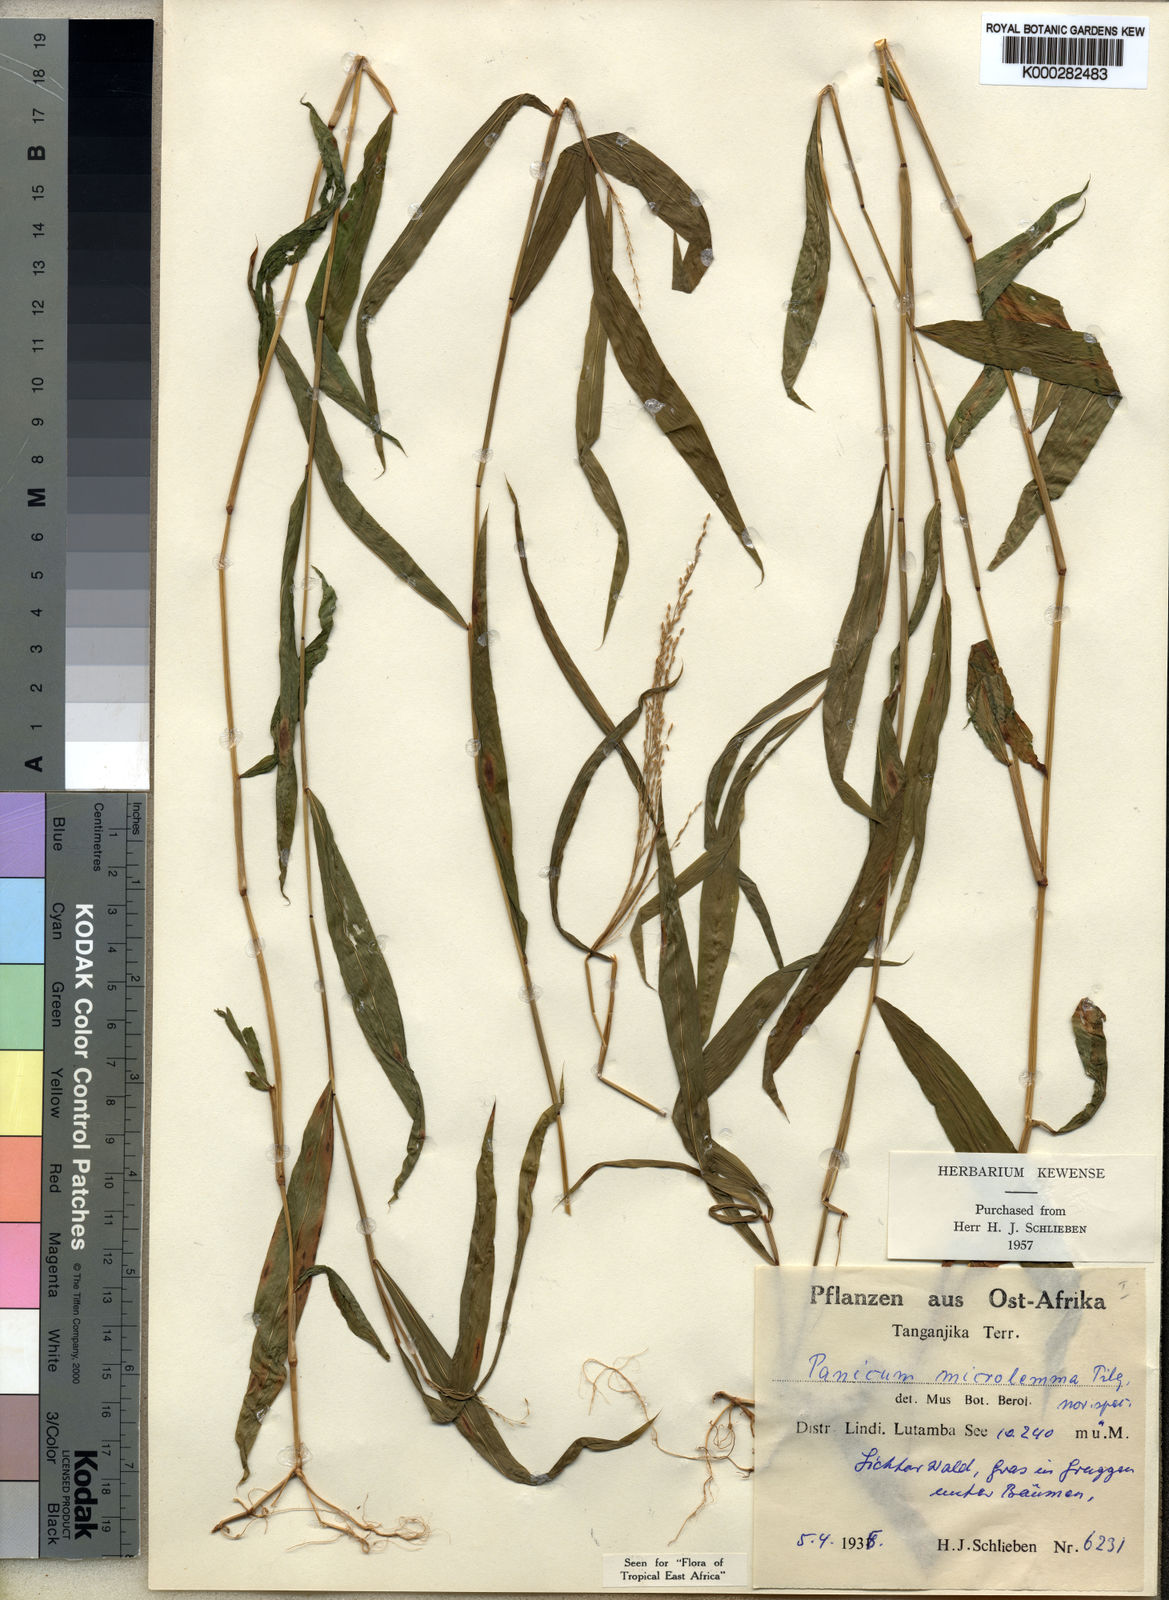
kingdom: Plantae
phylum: Tracheophyta
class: Liliopsida
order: Poales
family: Poaceae
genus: Panicum
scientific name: Panicum comorense
